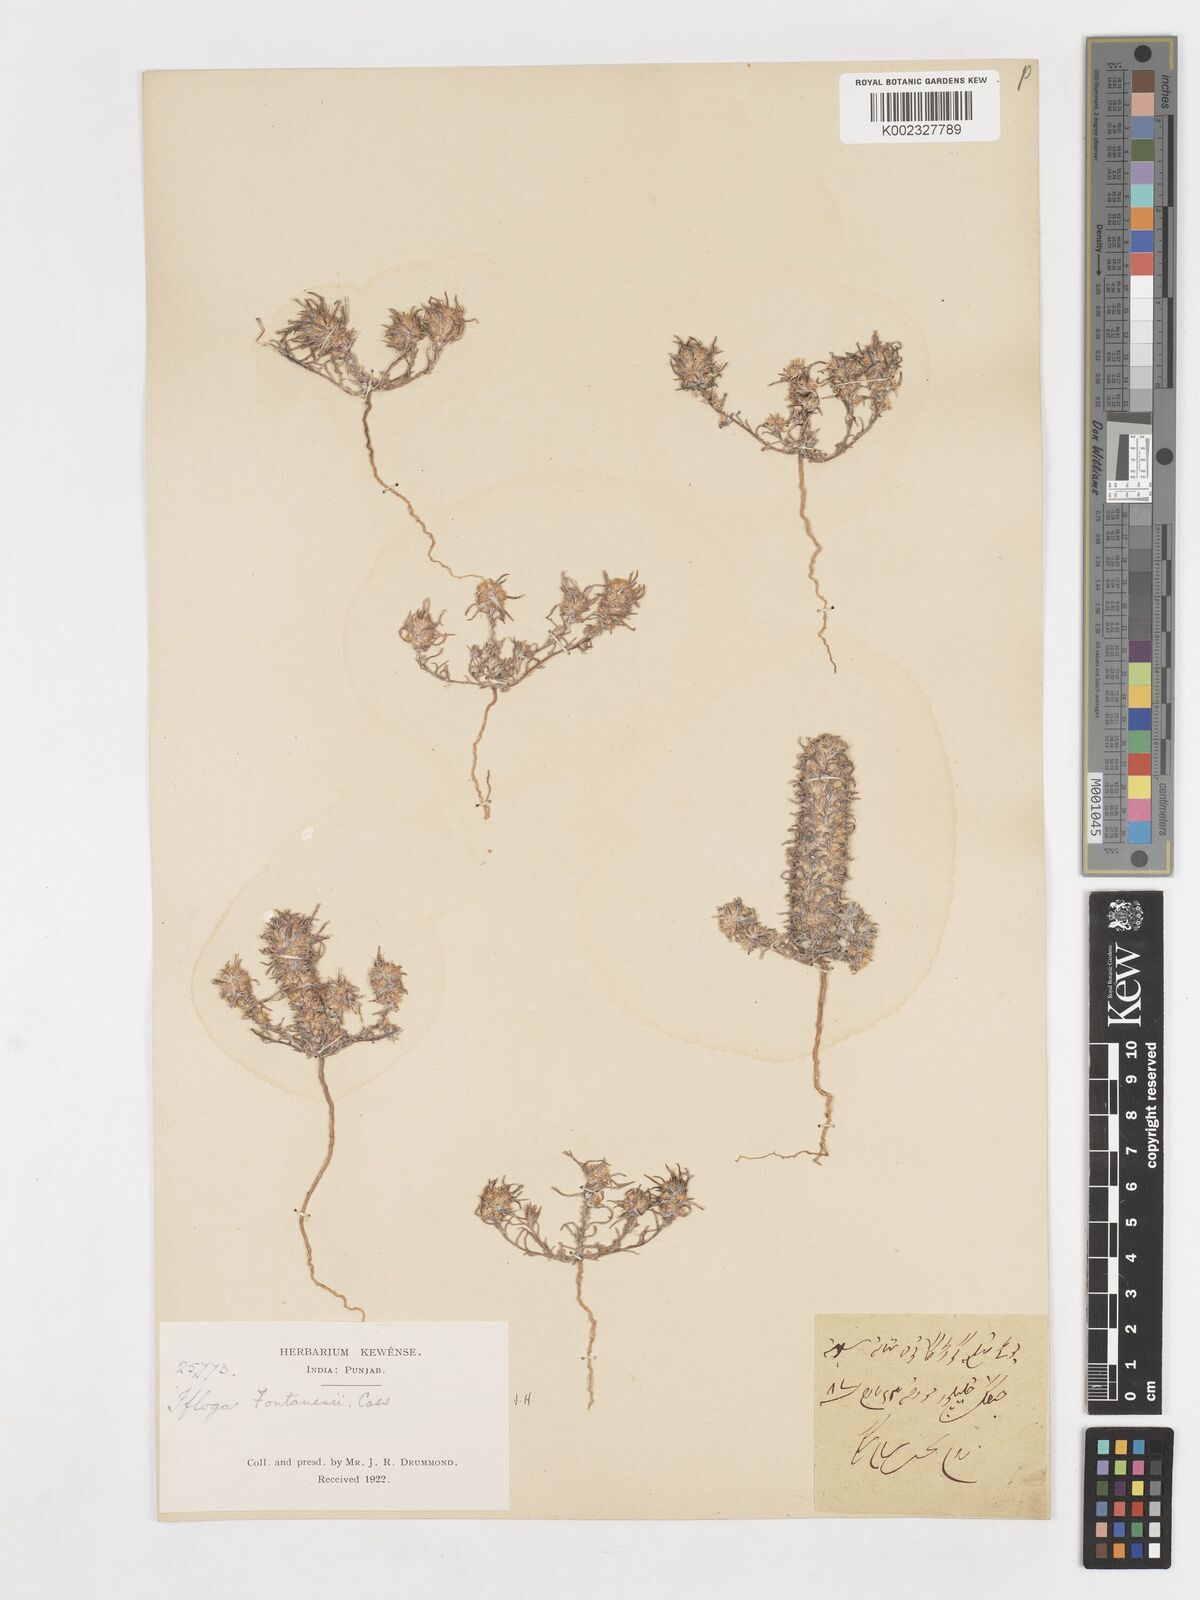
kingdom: Plantae
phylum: Tracheophyta
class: Magnoliopsida
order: Asterales
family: Asteraceae
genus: Ifloga
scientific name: Ifloga spicata
